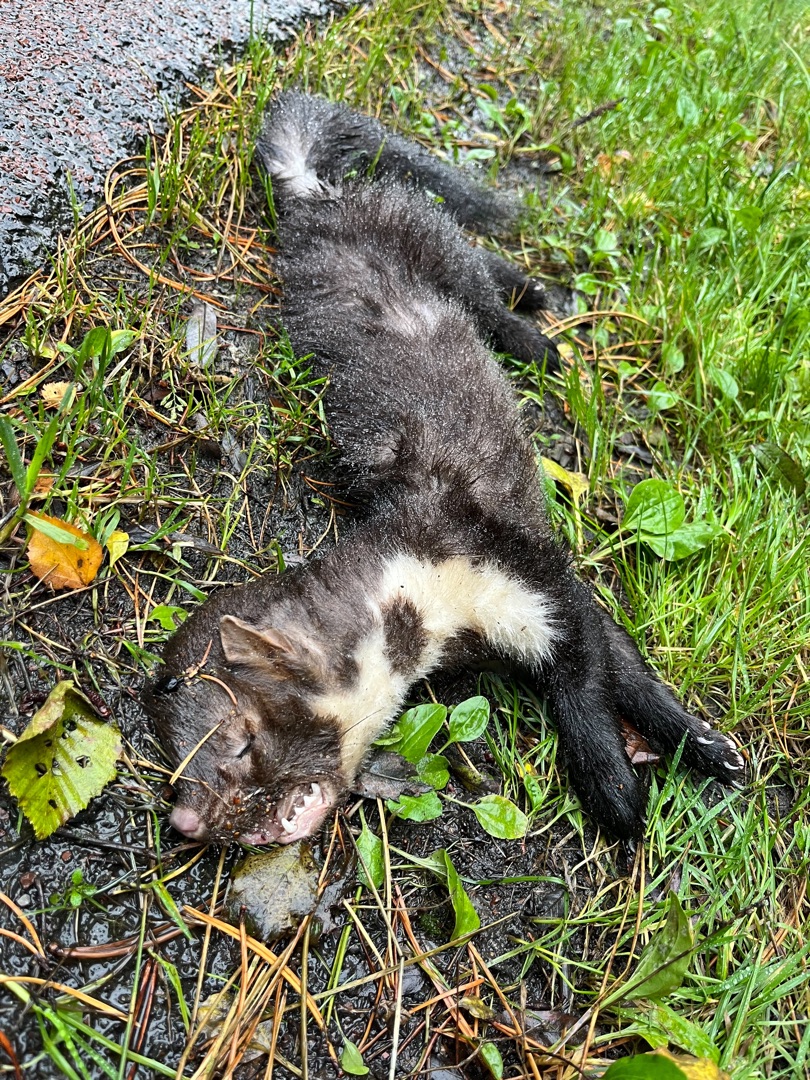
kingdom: Animalia
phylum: Chordata
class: Mammalia
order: Carnivora
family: Mustelidae
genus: Martes
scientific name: Martes foina
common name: Husmår
